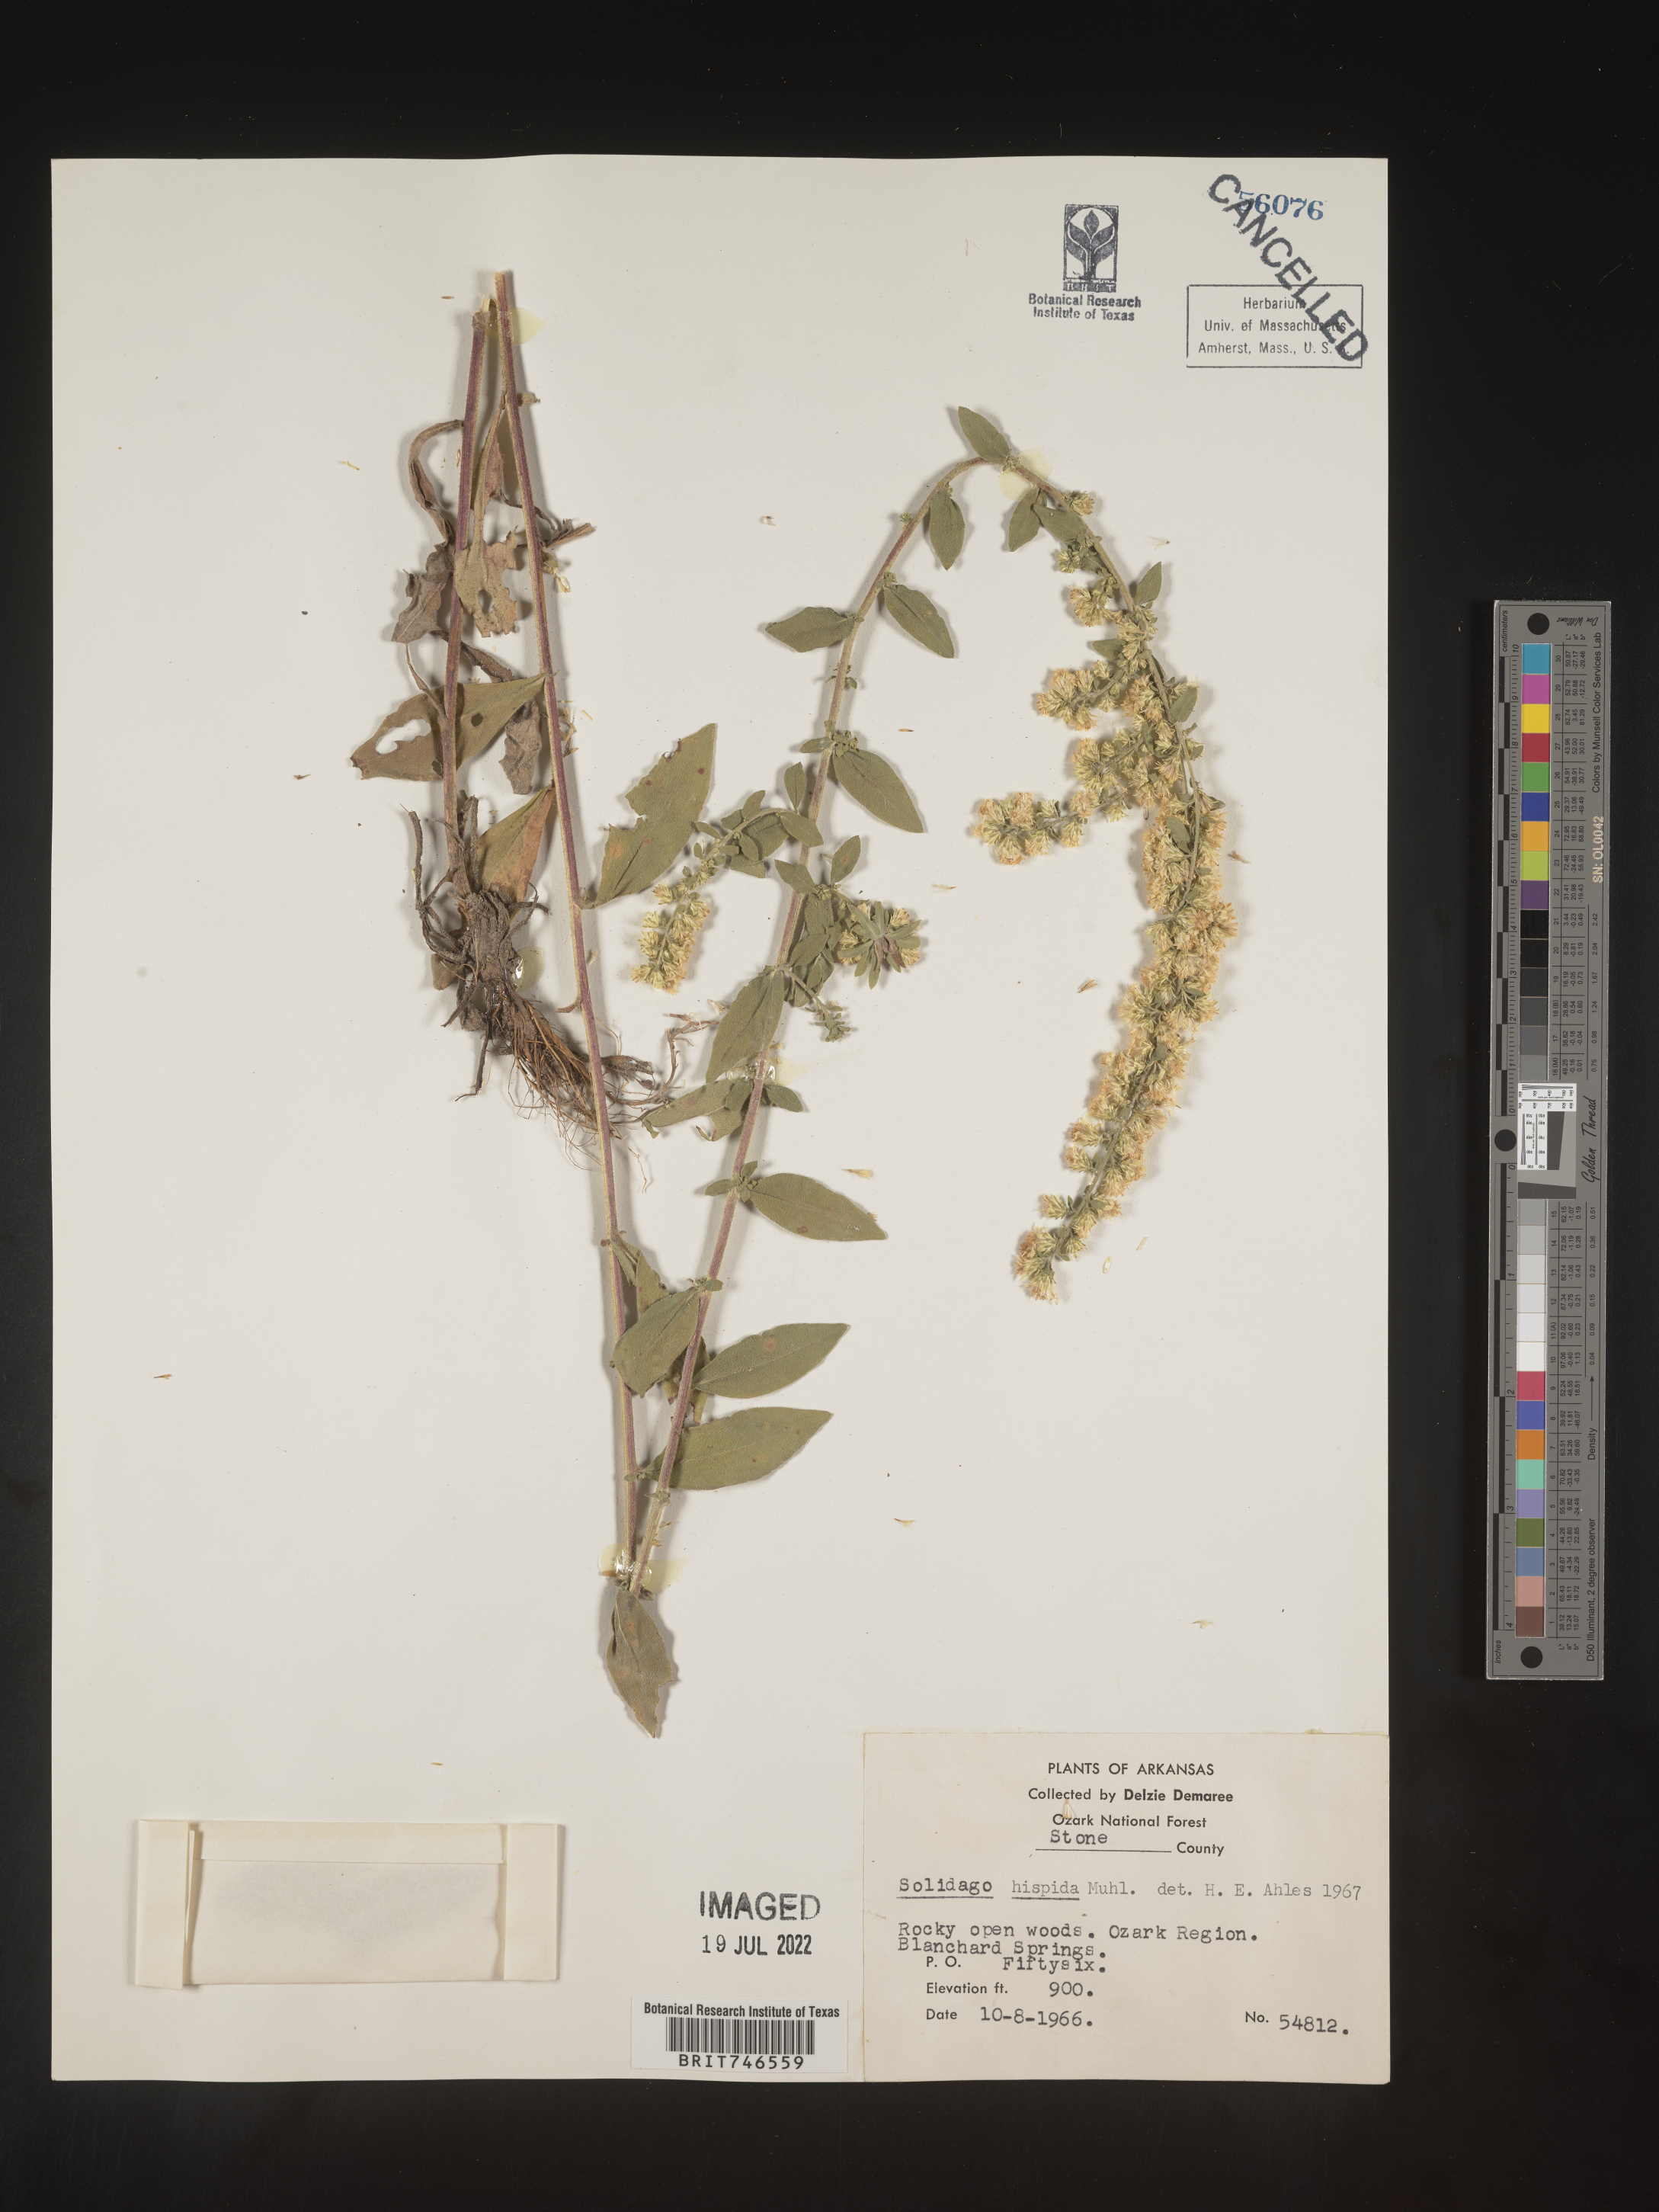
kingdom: Plantae
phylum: Tracheophyta
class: Magnoliopsida
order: Asterales
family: Asteraceae
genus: Solidago
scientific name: Solidago hispida
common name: Hairy goldenrod
